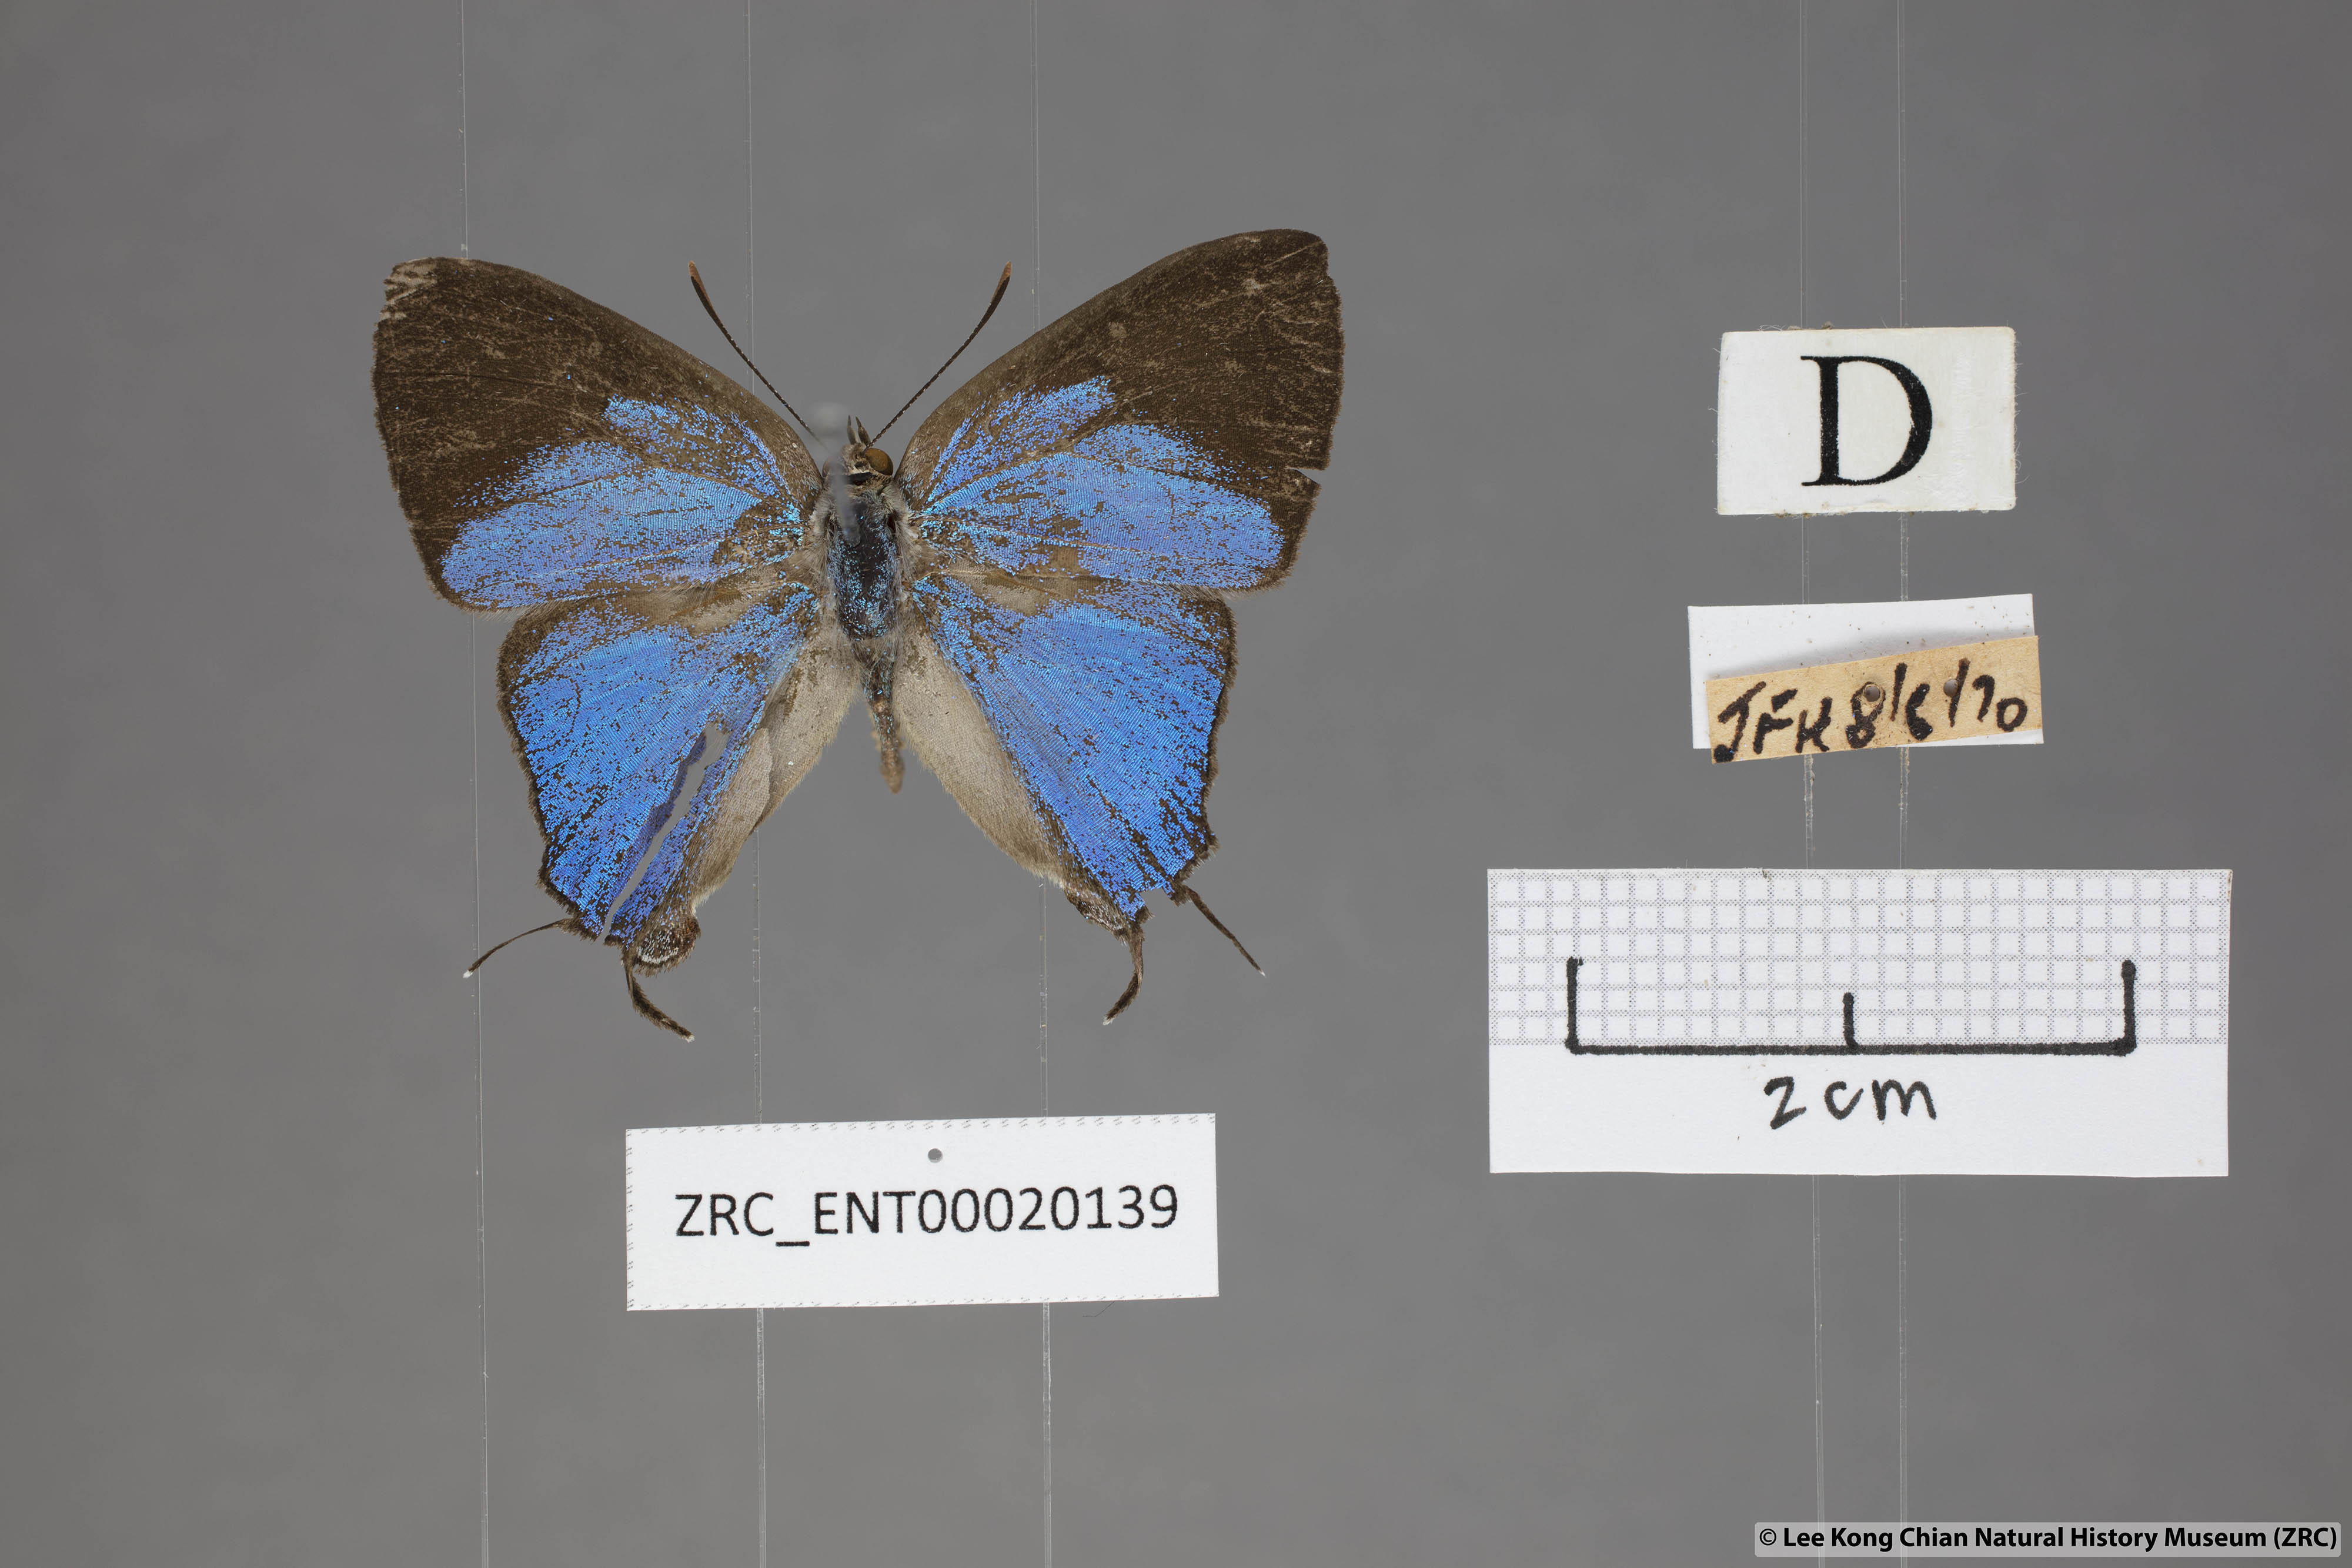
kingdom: Animalia
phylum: Arthropoda
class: Insecta
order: Lepidoptera
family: Lycaenidae
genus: Creon
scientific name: Creon cleobis
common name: Broad-tail royal
